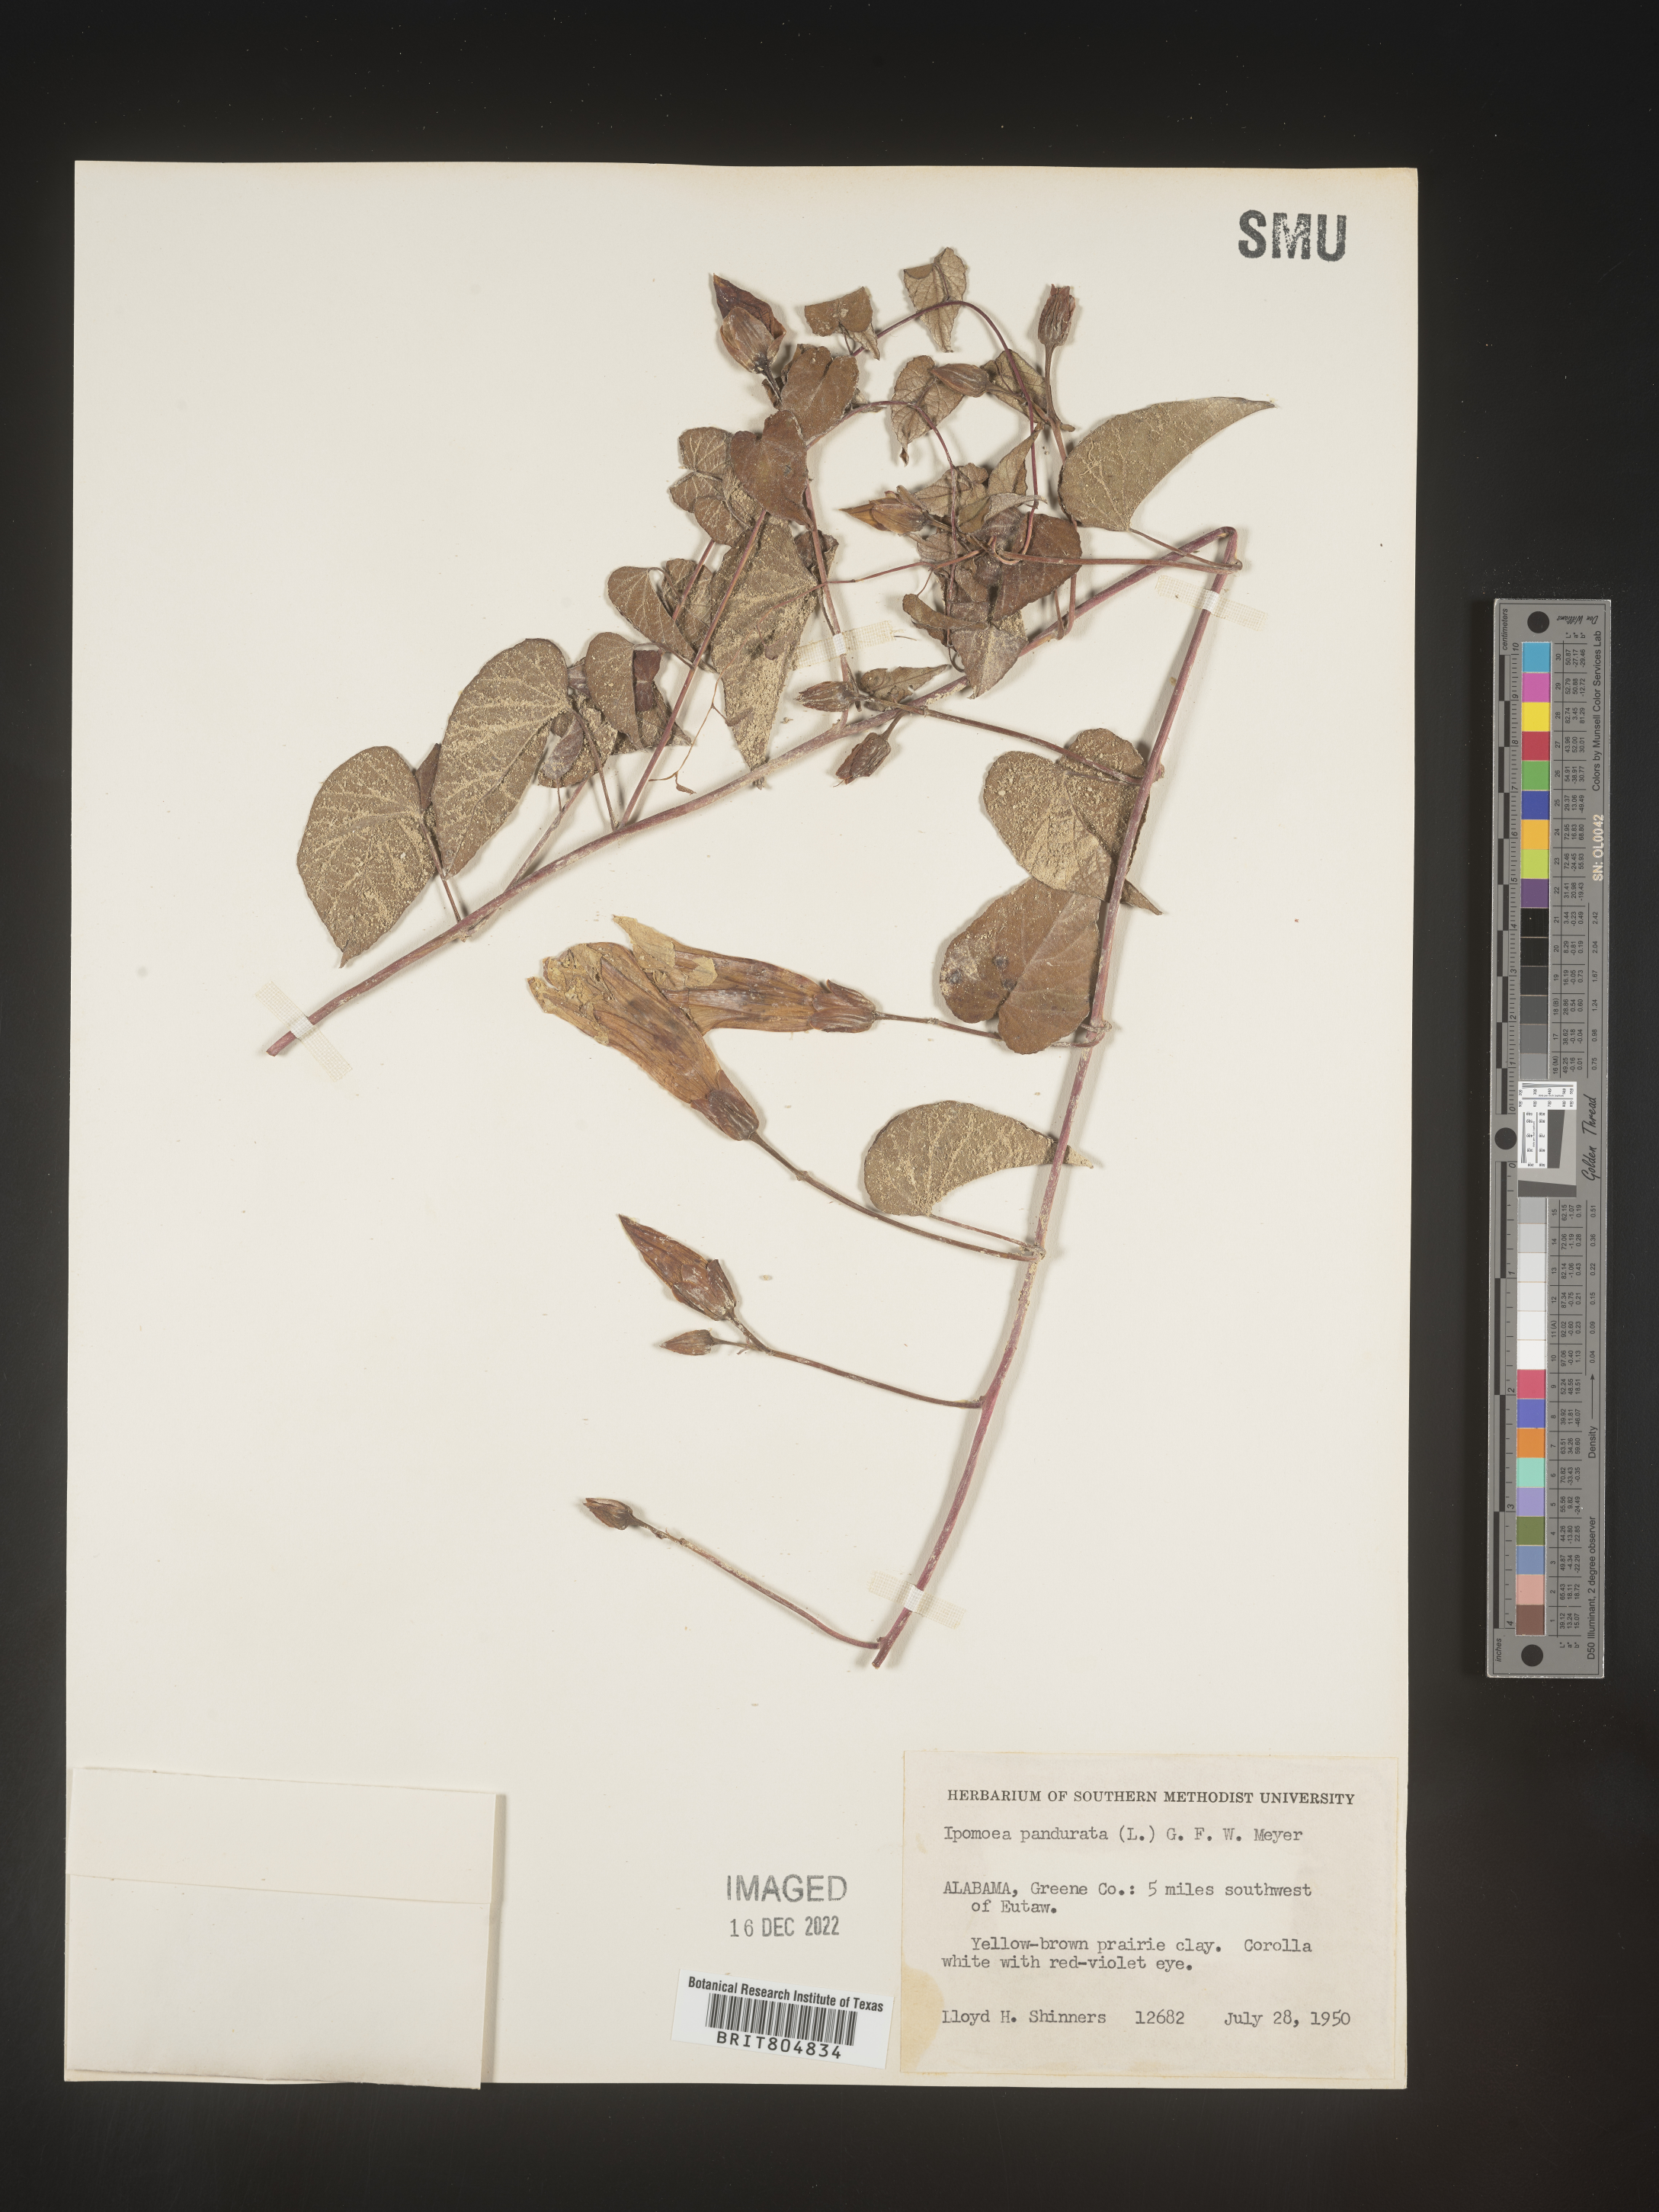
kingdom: Plantae
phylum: Tracheophyta
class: Magnoliopsida
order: Solanales
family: Convolvulaceae
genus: Ipomoea
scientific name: Ipomoea pandurata
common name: Man-of-the-earth
